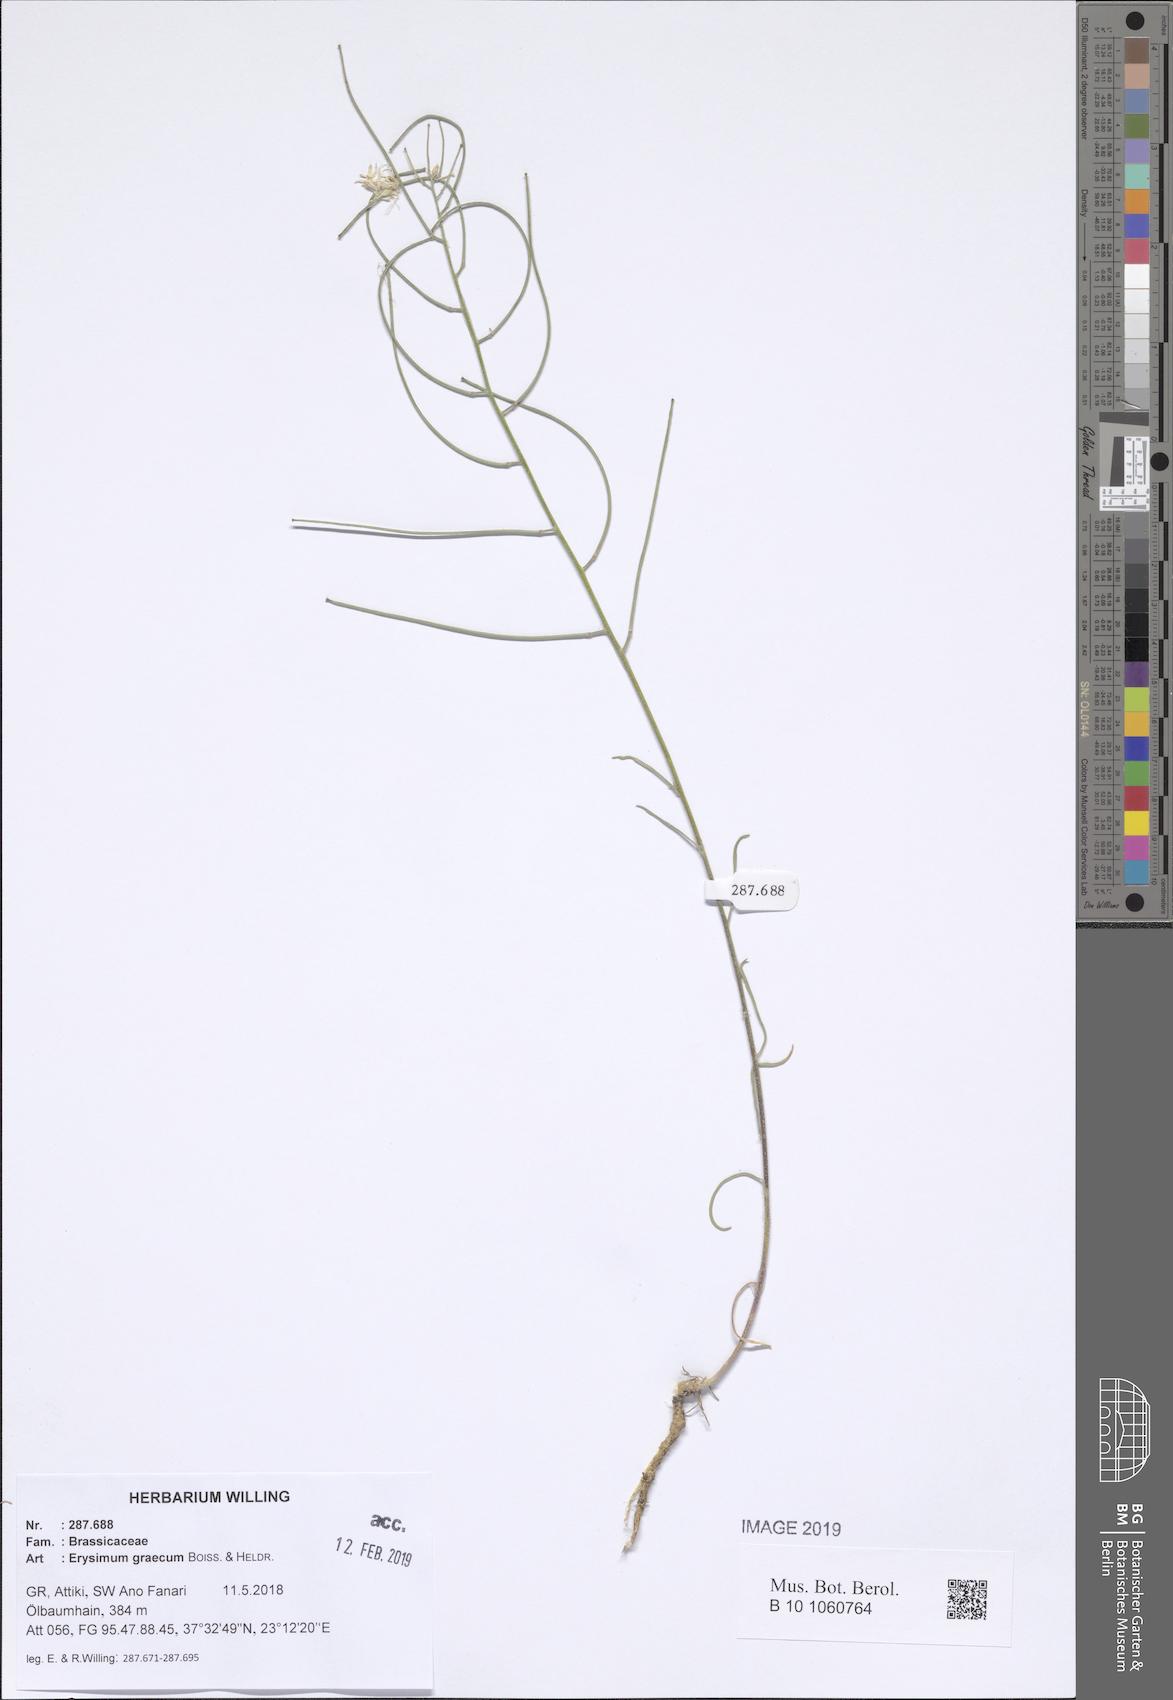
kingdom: Plantae
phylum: Tracheophyta
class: Magnoliopsida
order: Brassicales
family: Brassicaceae
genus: Erysimum
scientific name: Erysimum graecum
